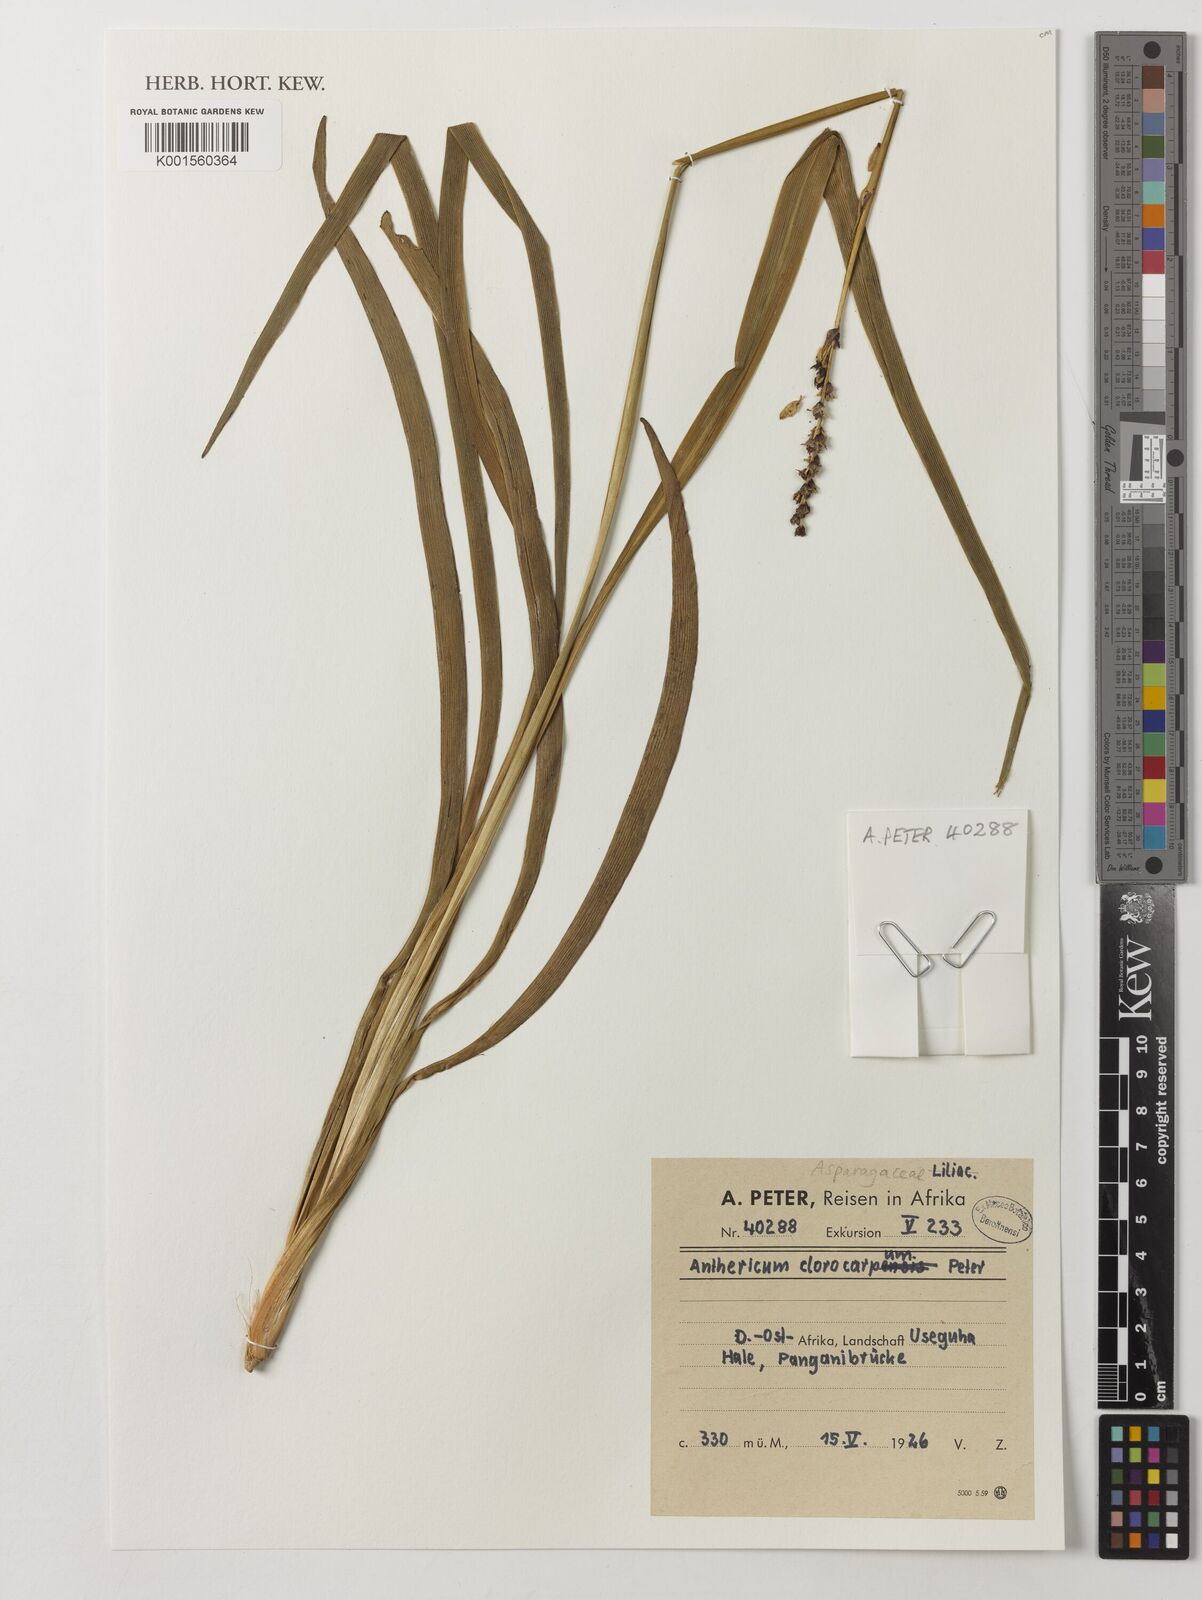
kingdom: Plantae
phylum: Tracheophyta
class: Liliopsida
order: Asparagales
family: Asparagaceae
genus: Anthericum
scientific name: Anthericum
